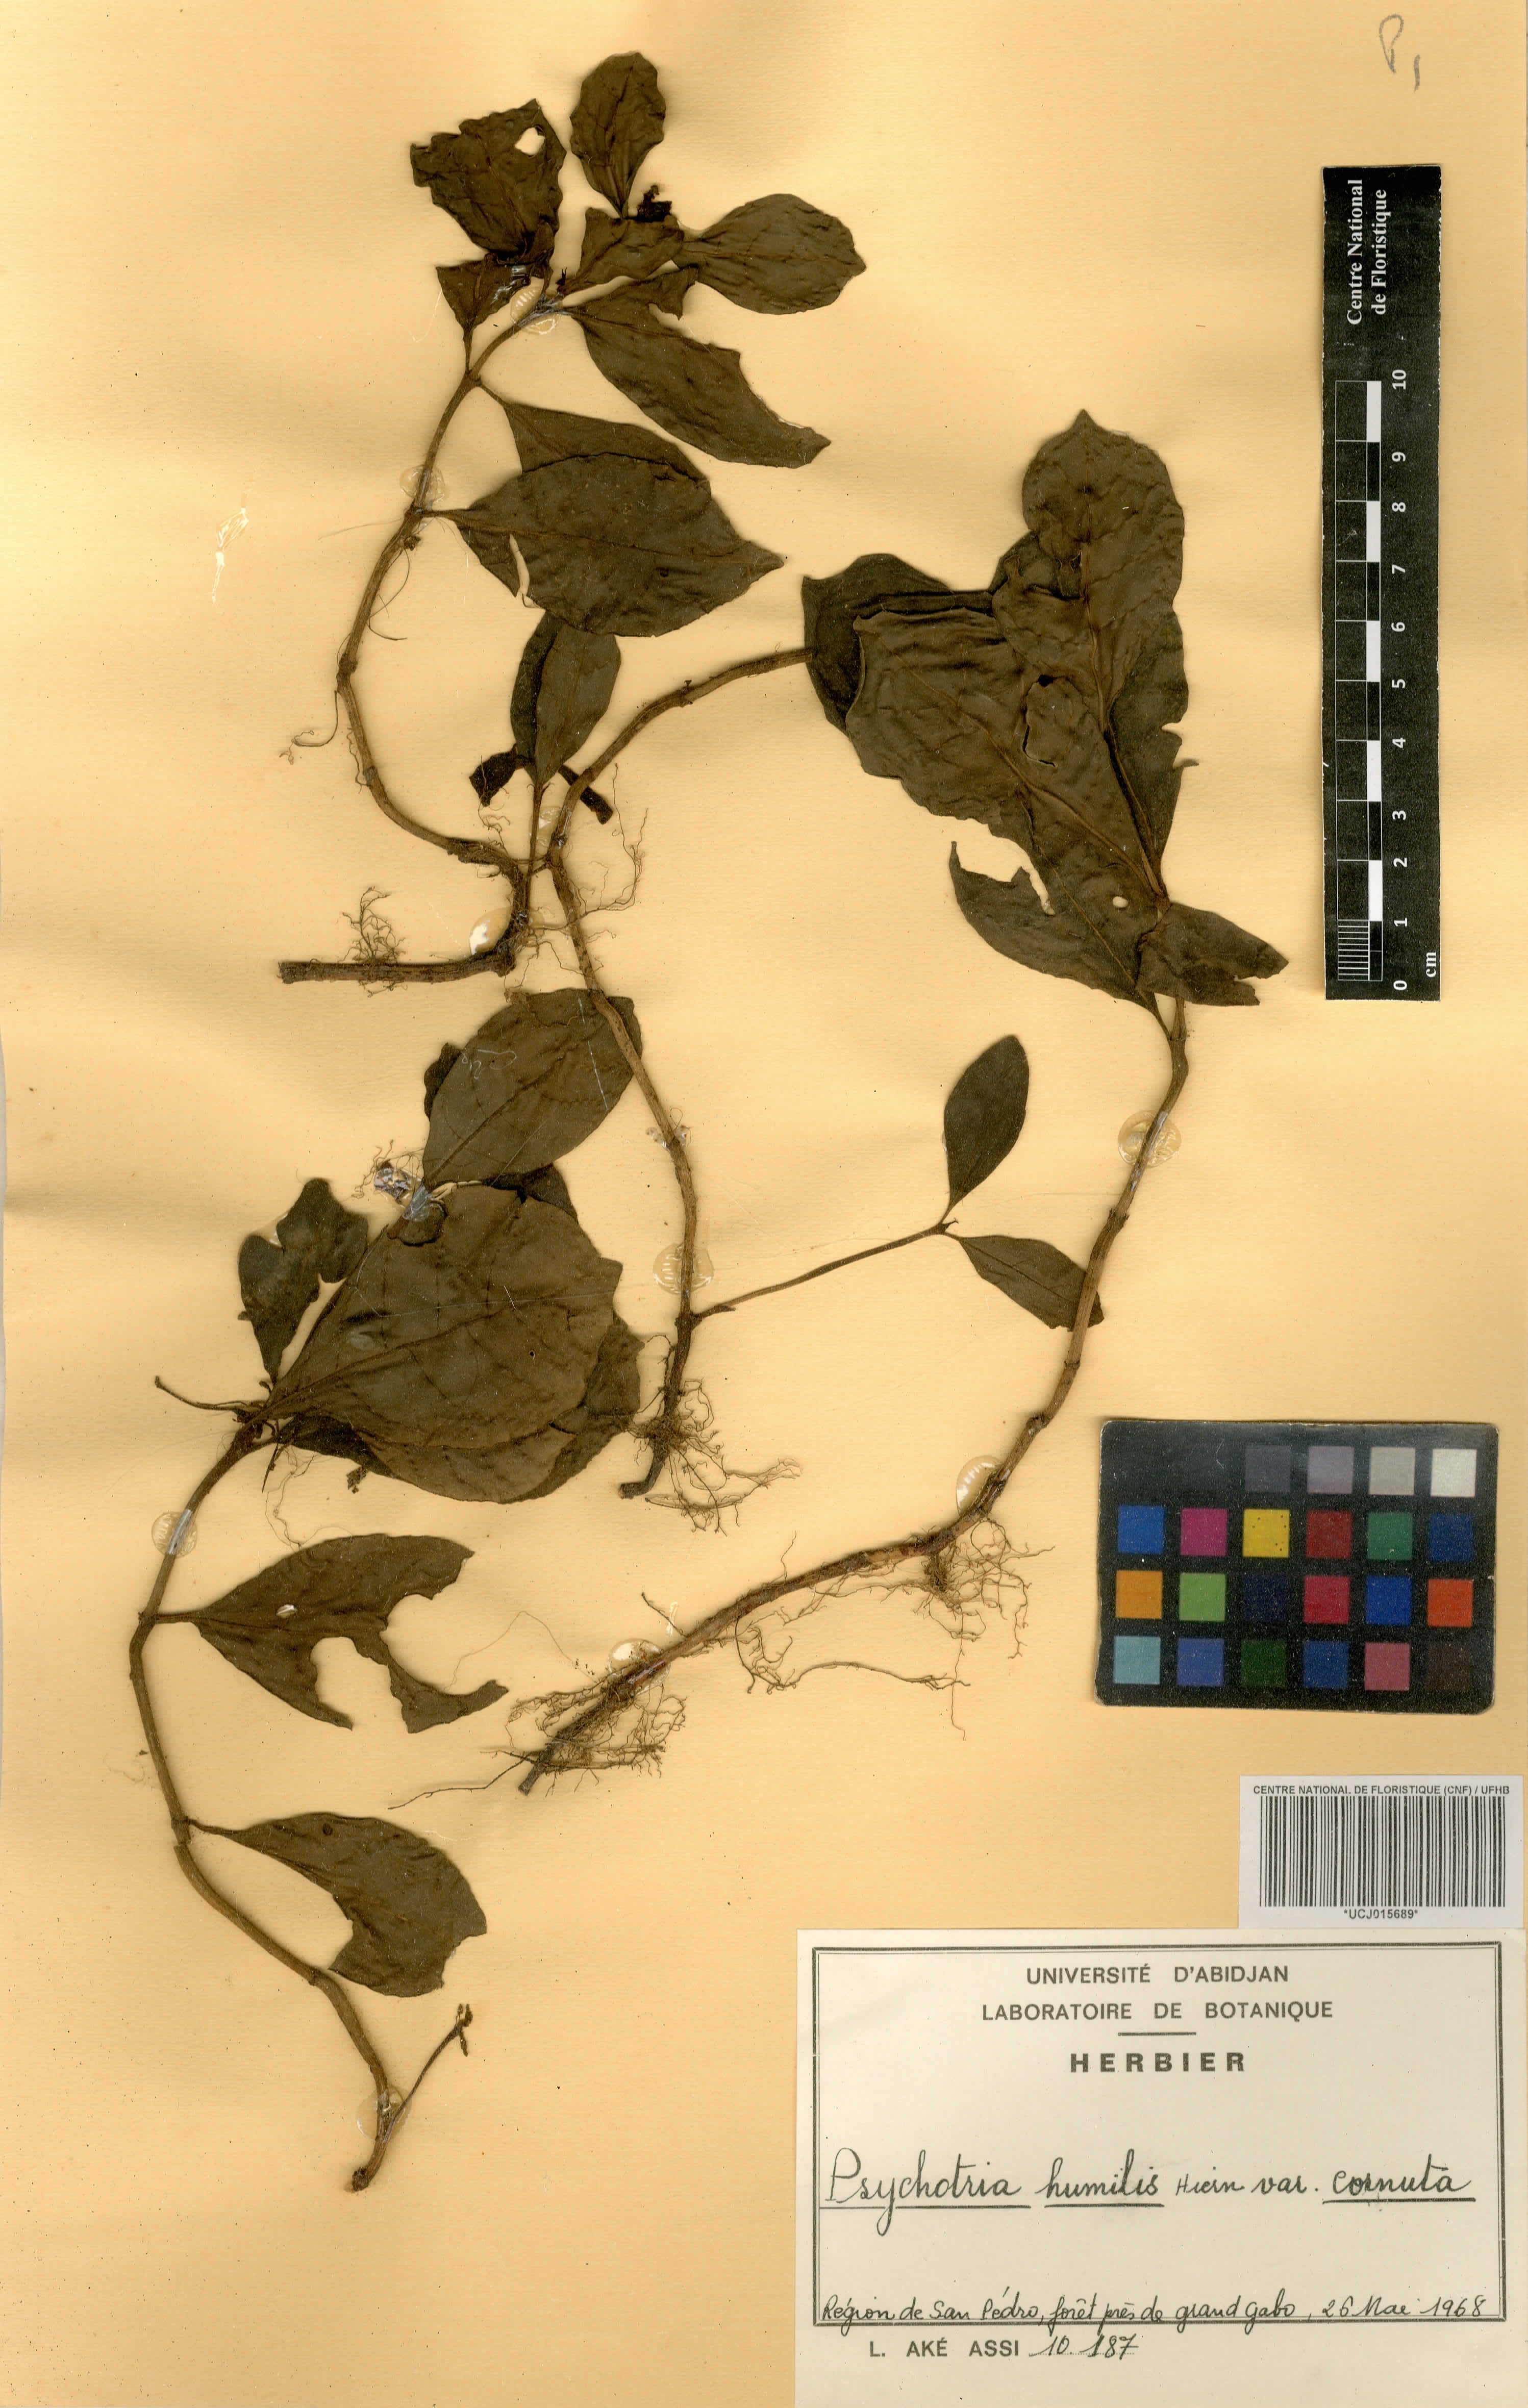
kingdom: Plantae
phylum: Tracheophyta
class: Magnoliopsida
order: Gentianales
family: Rubiaceae
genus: Psychotria
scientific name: Psychotria cornuta
